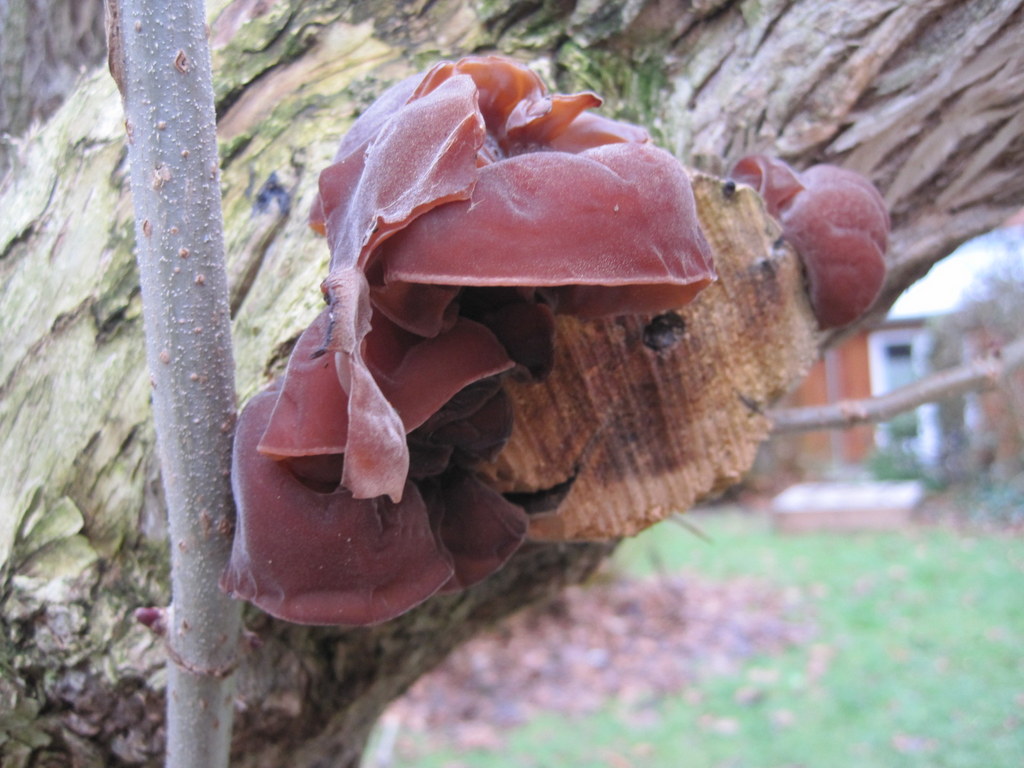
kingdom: Fungi
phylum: Basidiomycota
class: Agaricomycetes
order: Auriculariales
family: Auriculariaceae
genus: Auricularia
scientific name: Auricularia auricula-judae
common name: almindelig judasøre
